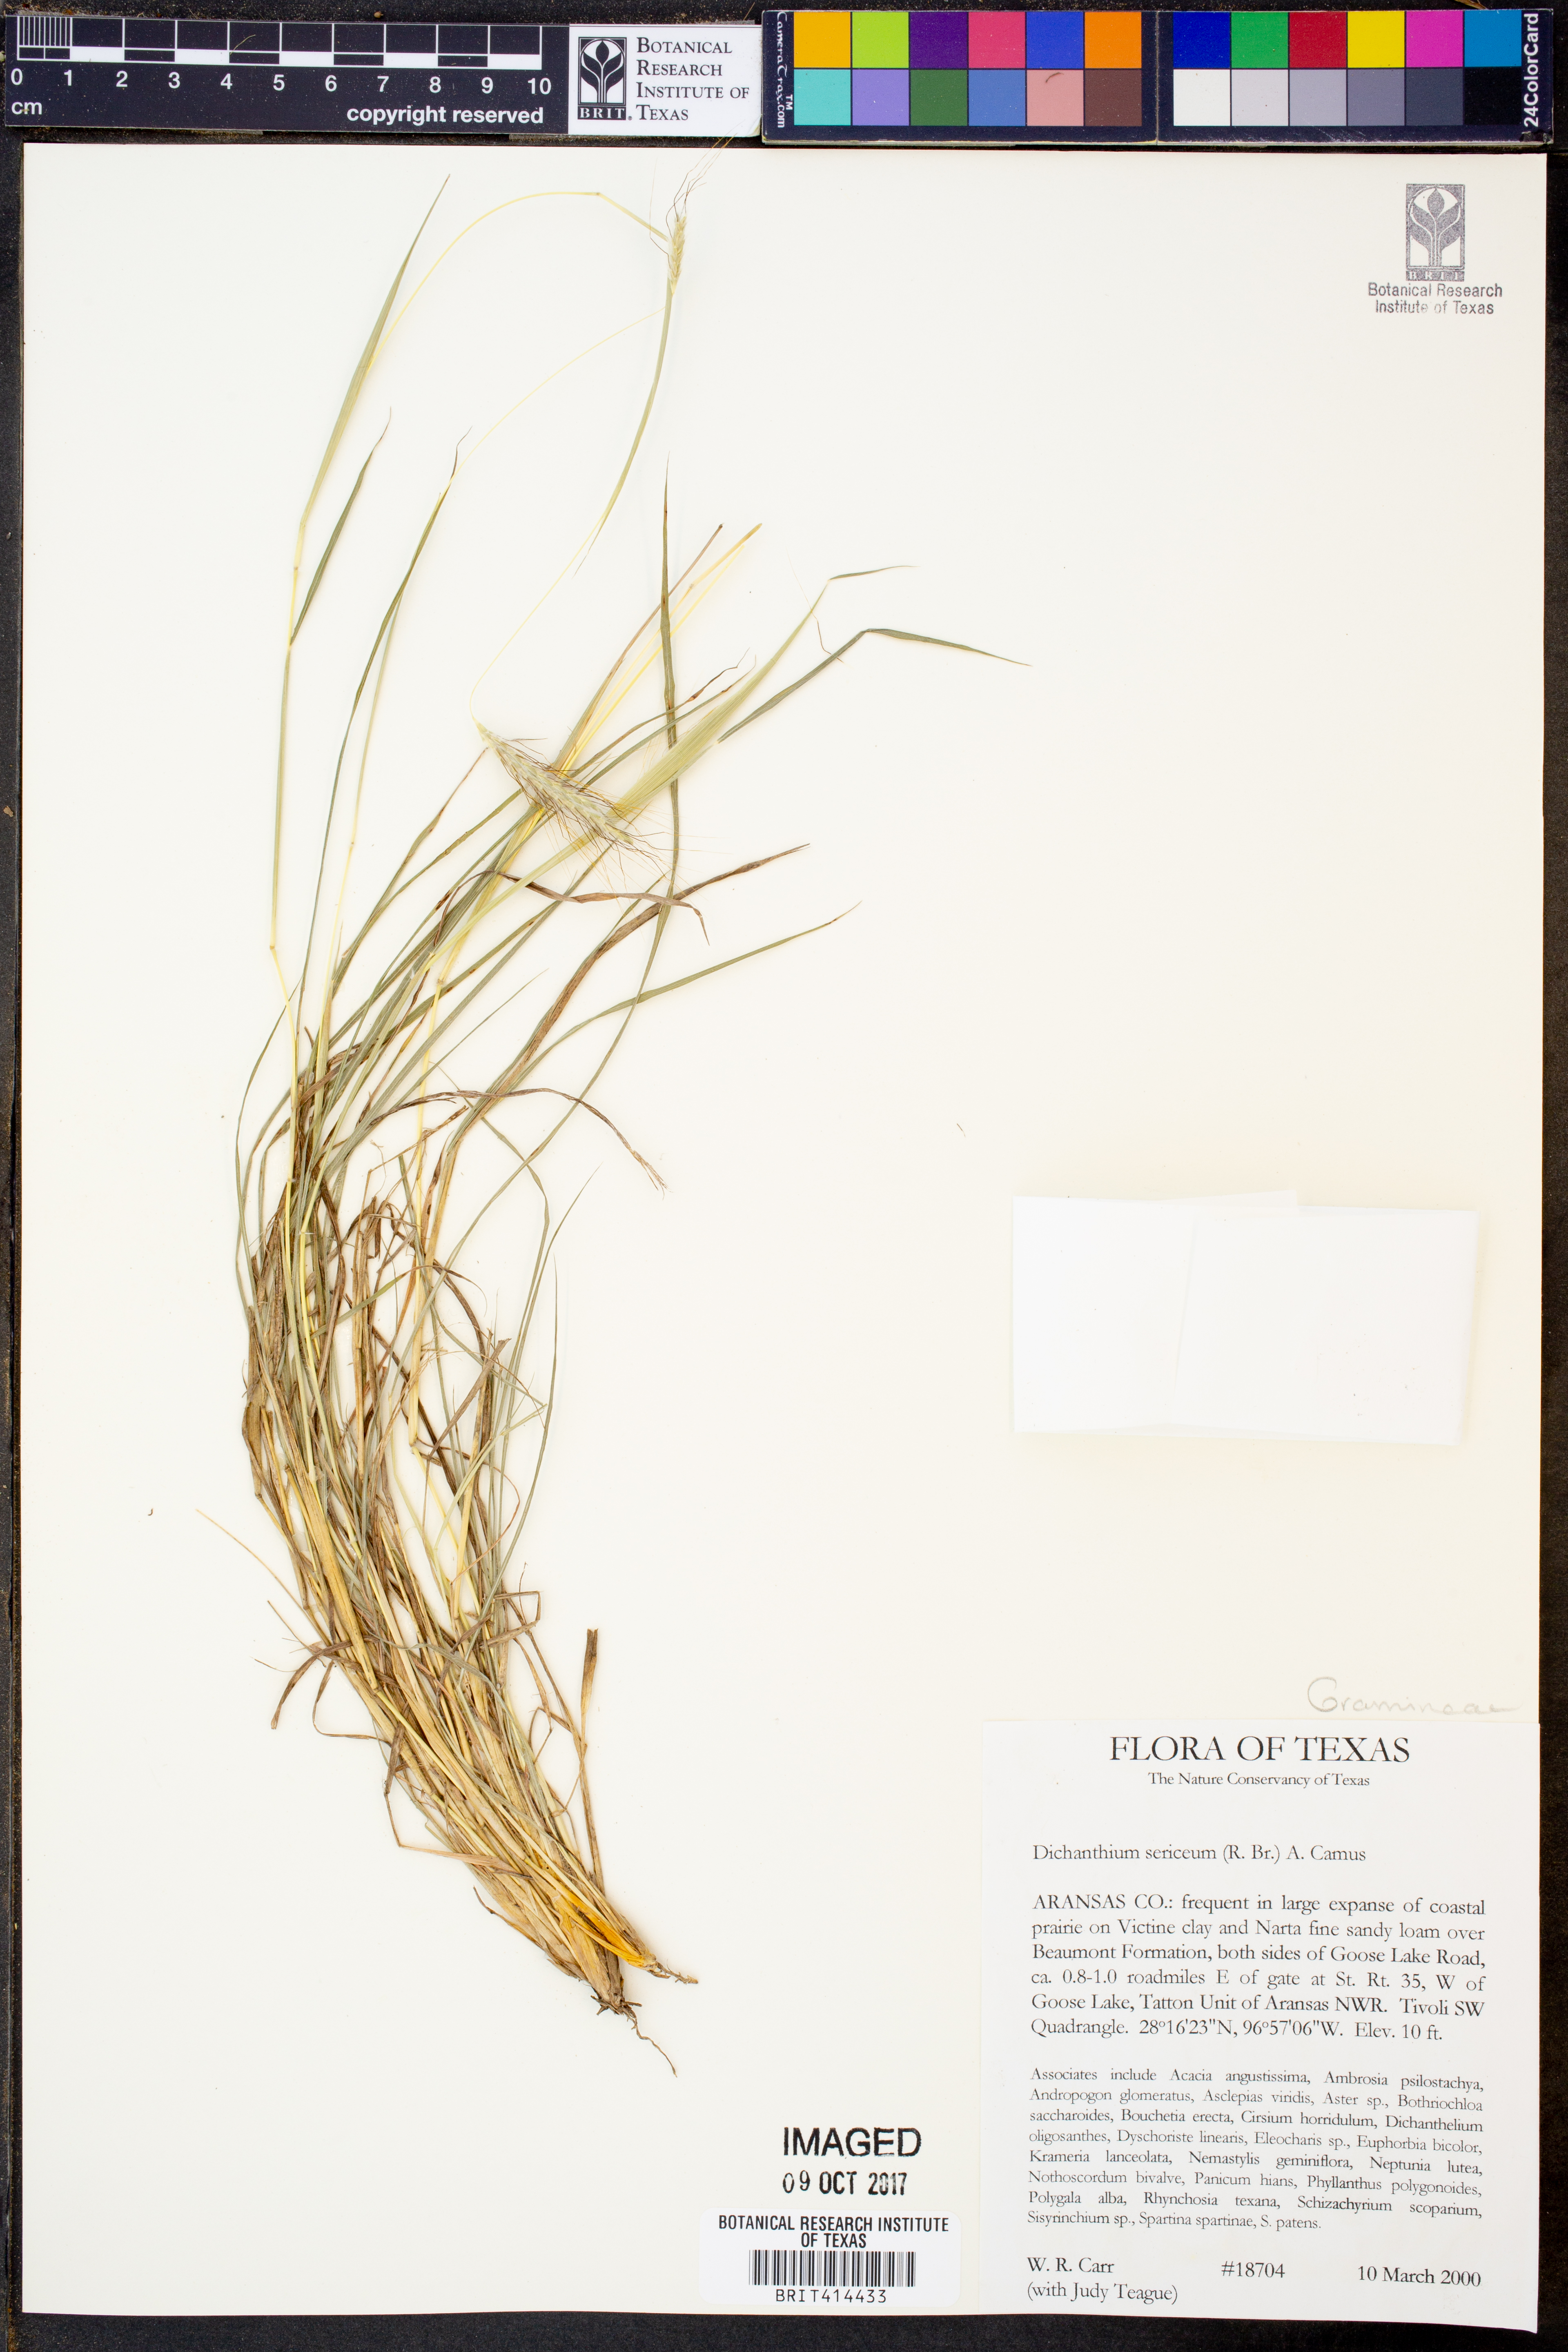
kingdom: Plantae
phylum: Tracheophyta
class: Liliopsida
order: Poales
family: Poaceae
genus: Dichanthium
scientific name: Dichanthium sericeum
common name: Silky bluestem
